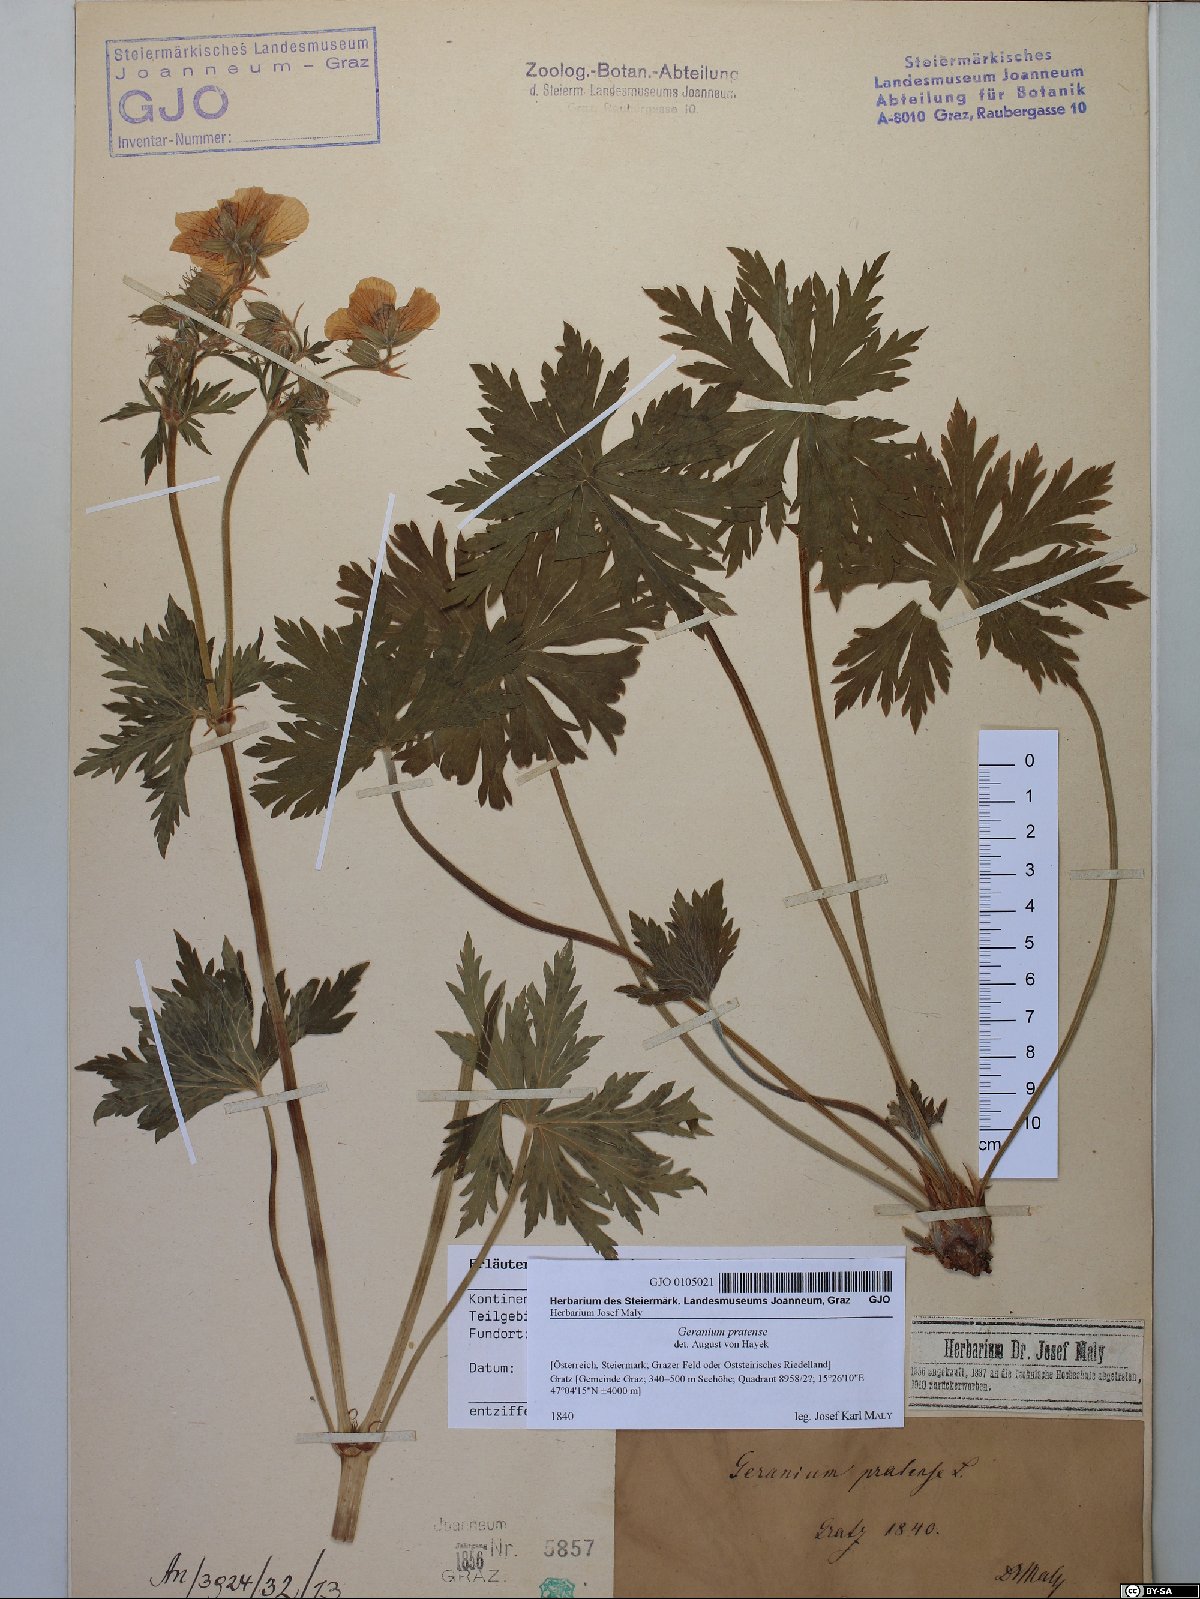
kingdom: Plantae
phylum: Tracheophyta
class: Magnoliopsida
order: Geraniales
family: Geraniaceae
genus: Geranium
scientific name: Geranium pratense
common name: Meadow crane's-bill
